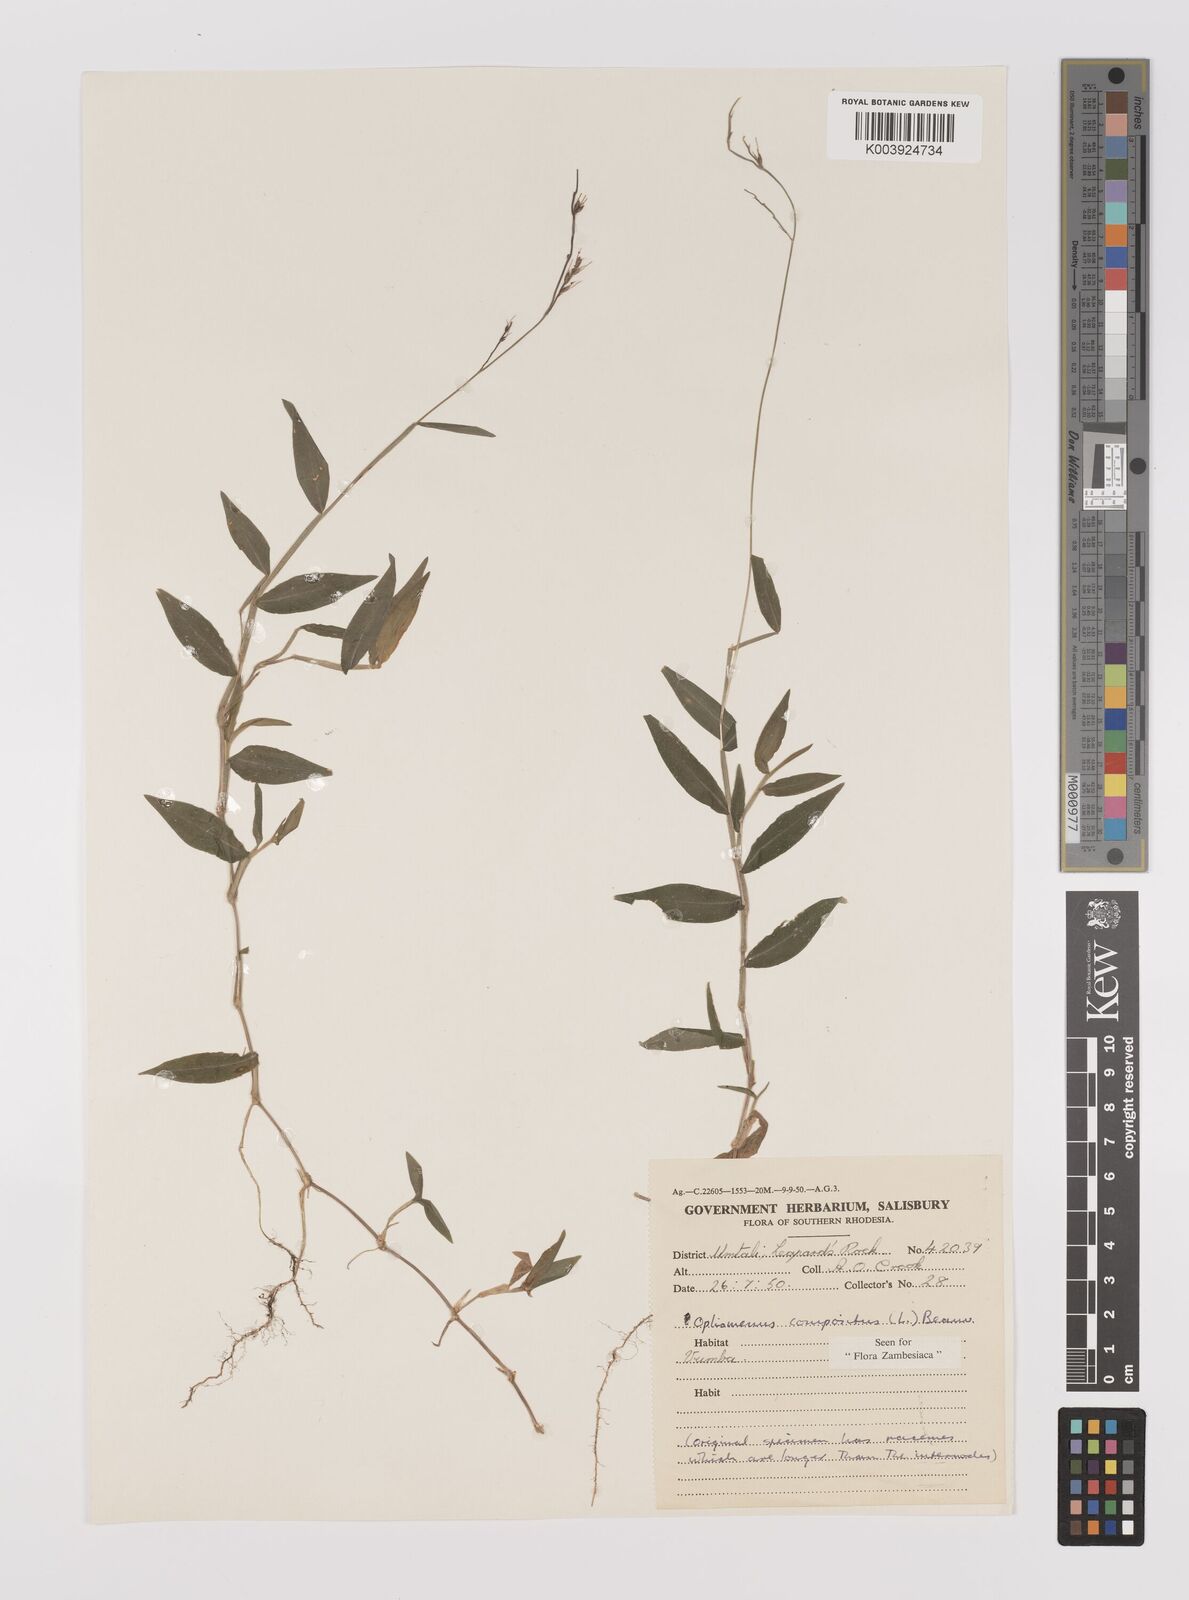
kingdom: Plantae
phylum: Tracheophyta
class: Liliopsida
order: Poales
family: Poaceae
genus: Oplismenus
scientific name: Oplismenus compositus
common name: Running mountain grass
